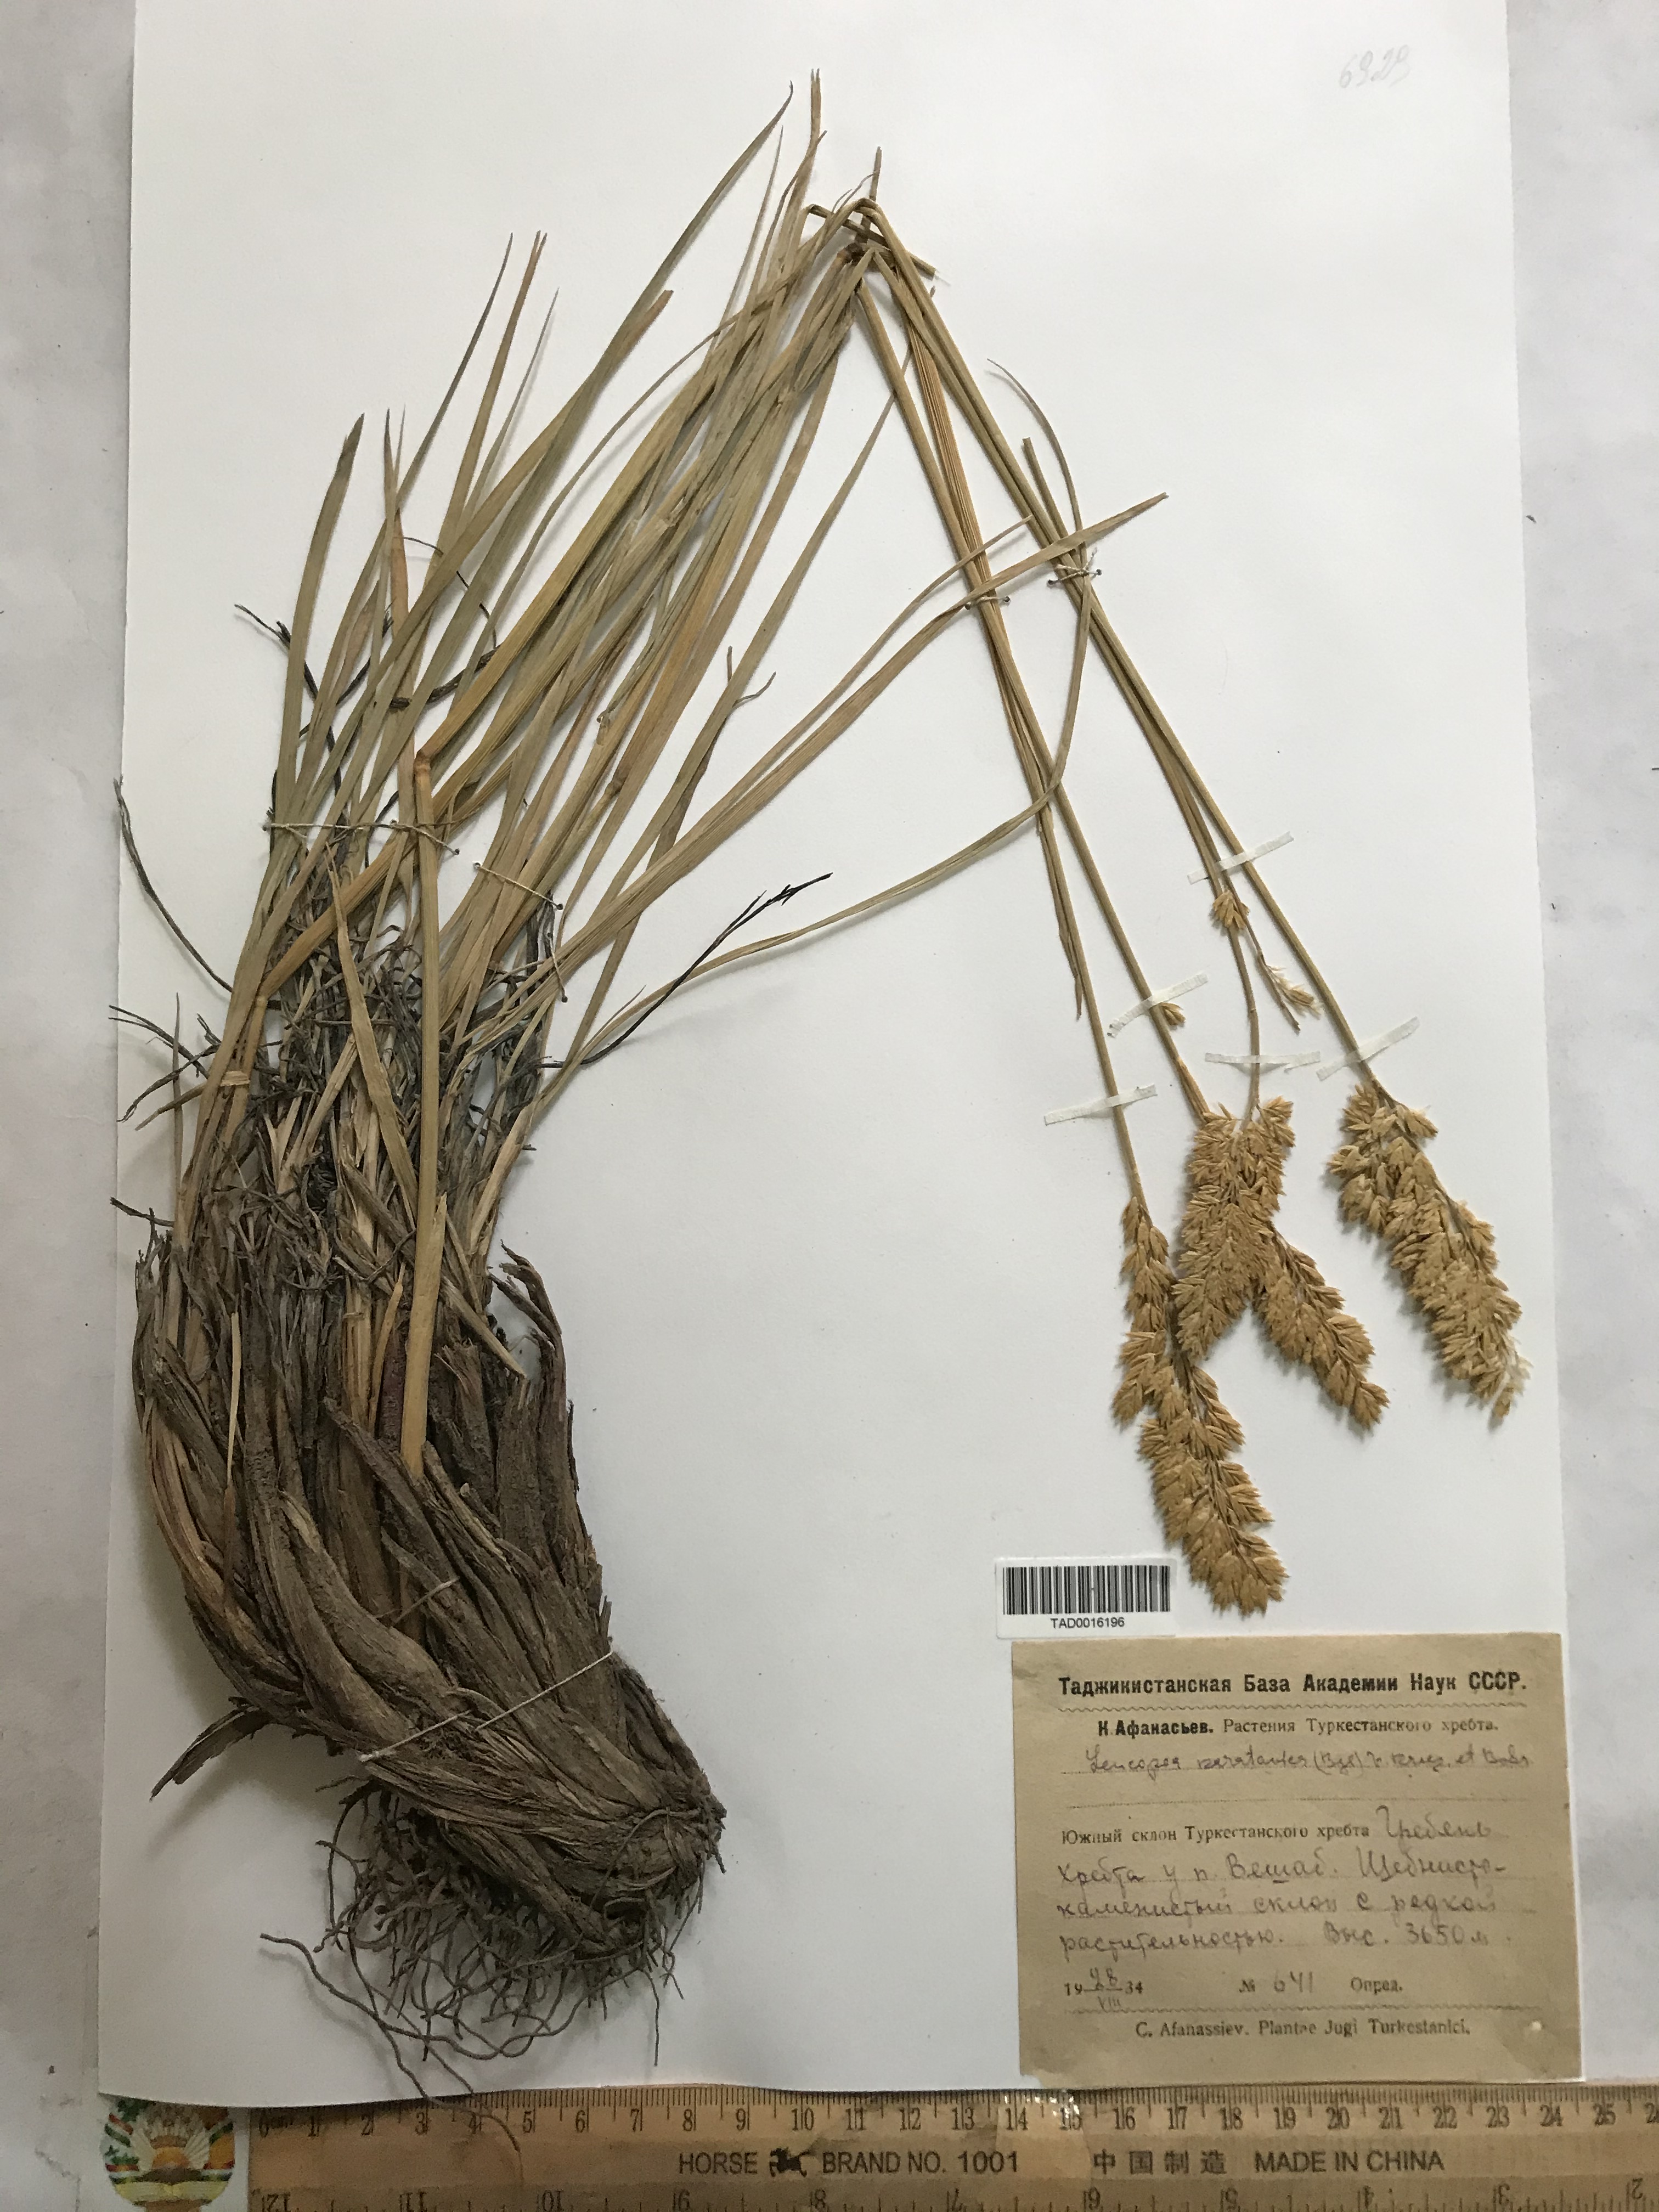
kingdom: Plantae
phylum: Tracheophyta
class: Liliopsida
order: Poales
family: Poaceae
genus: Festuca
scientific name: Festuca karatavica
